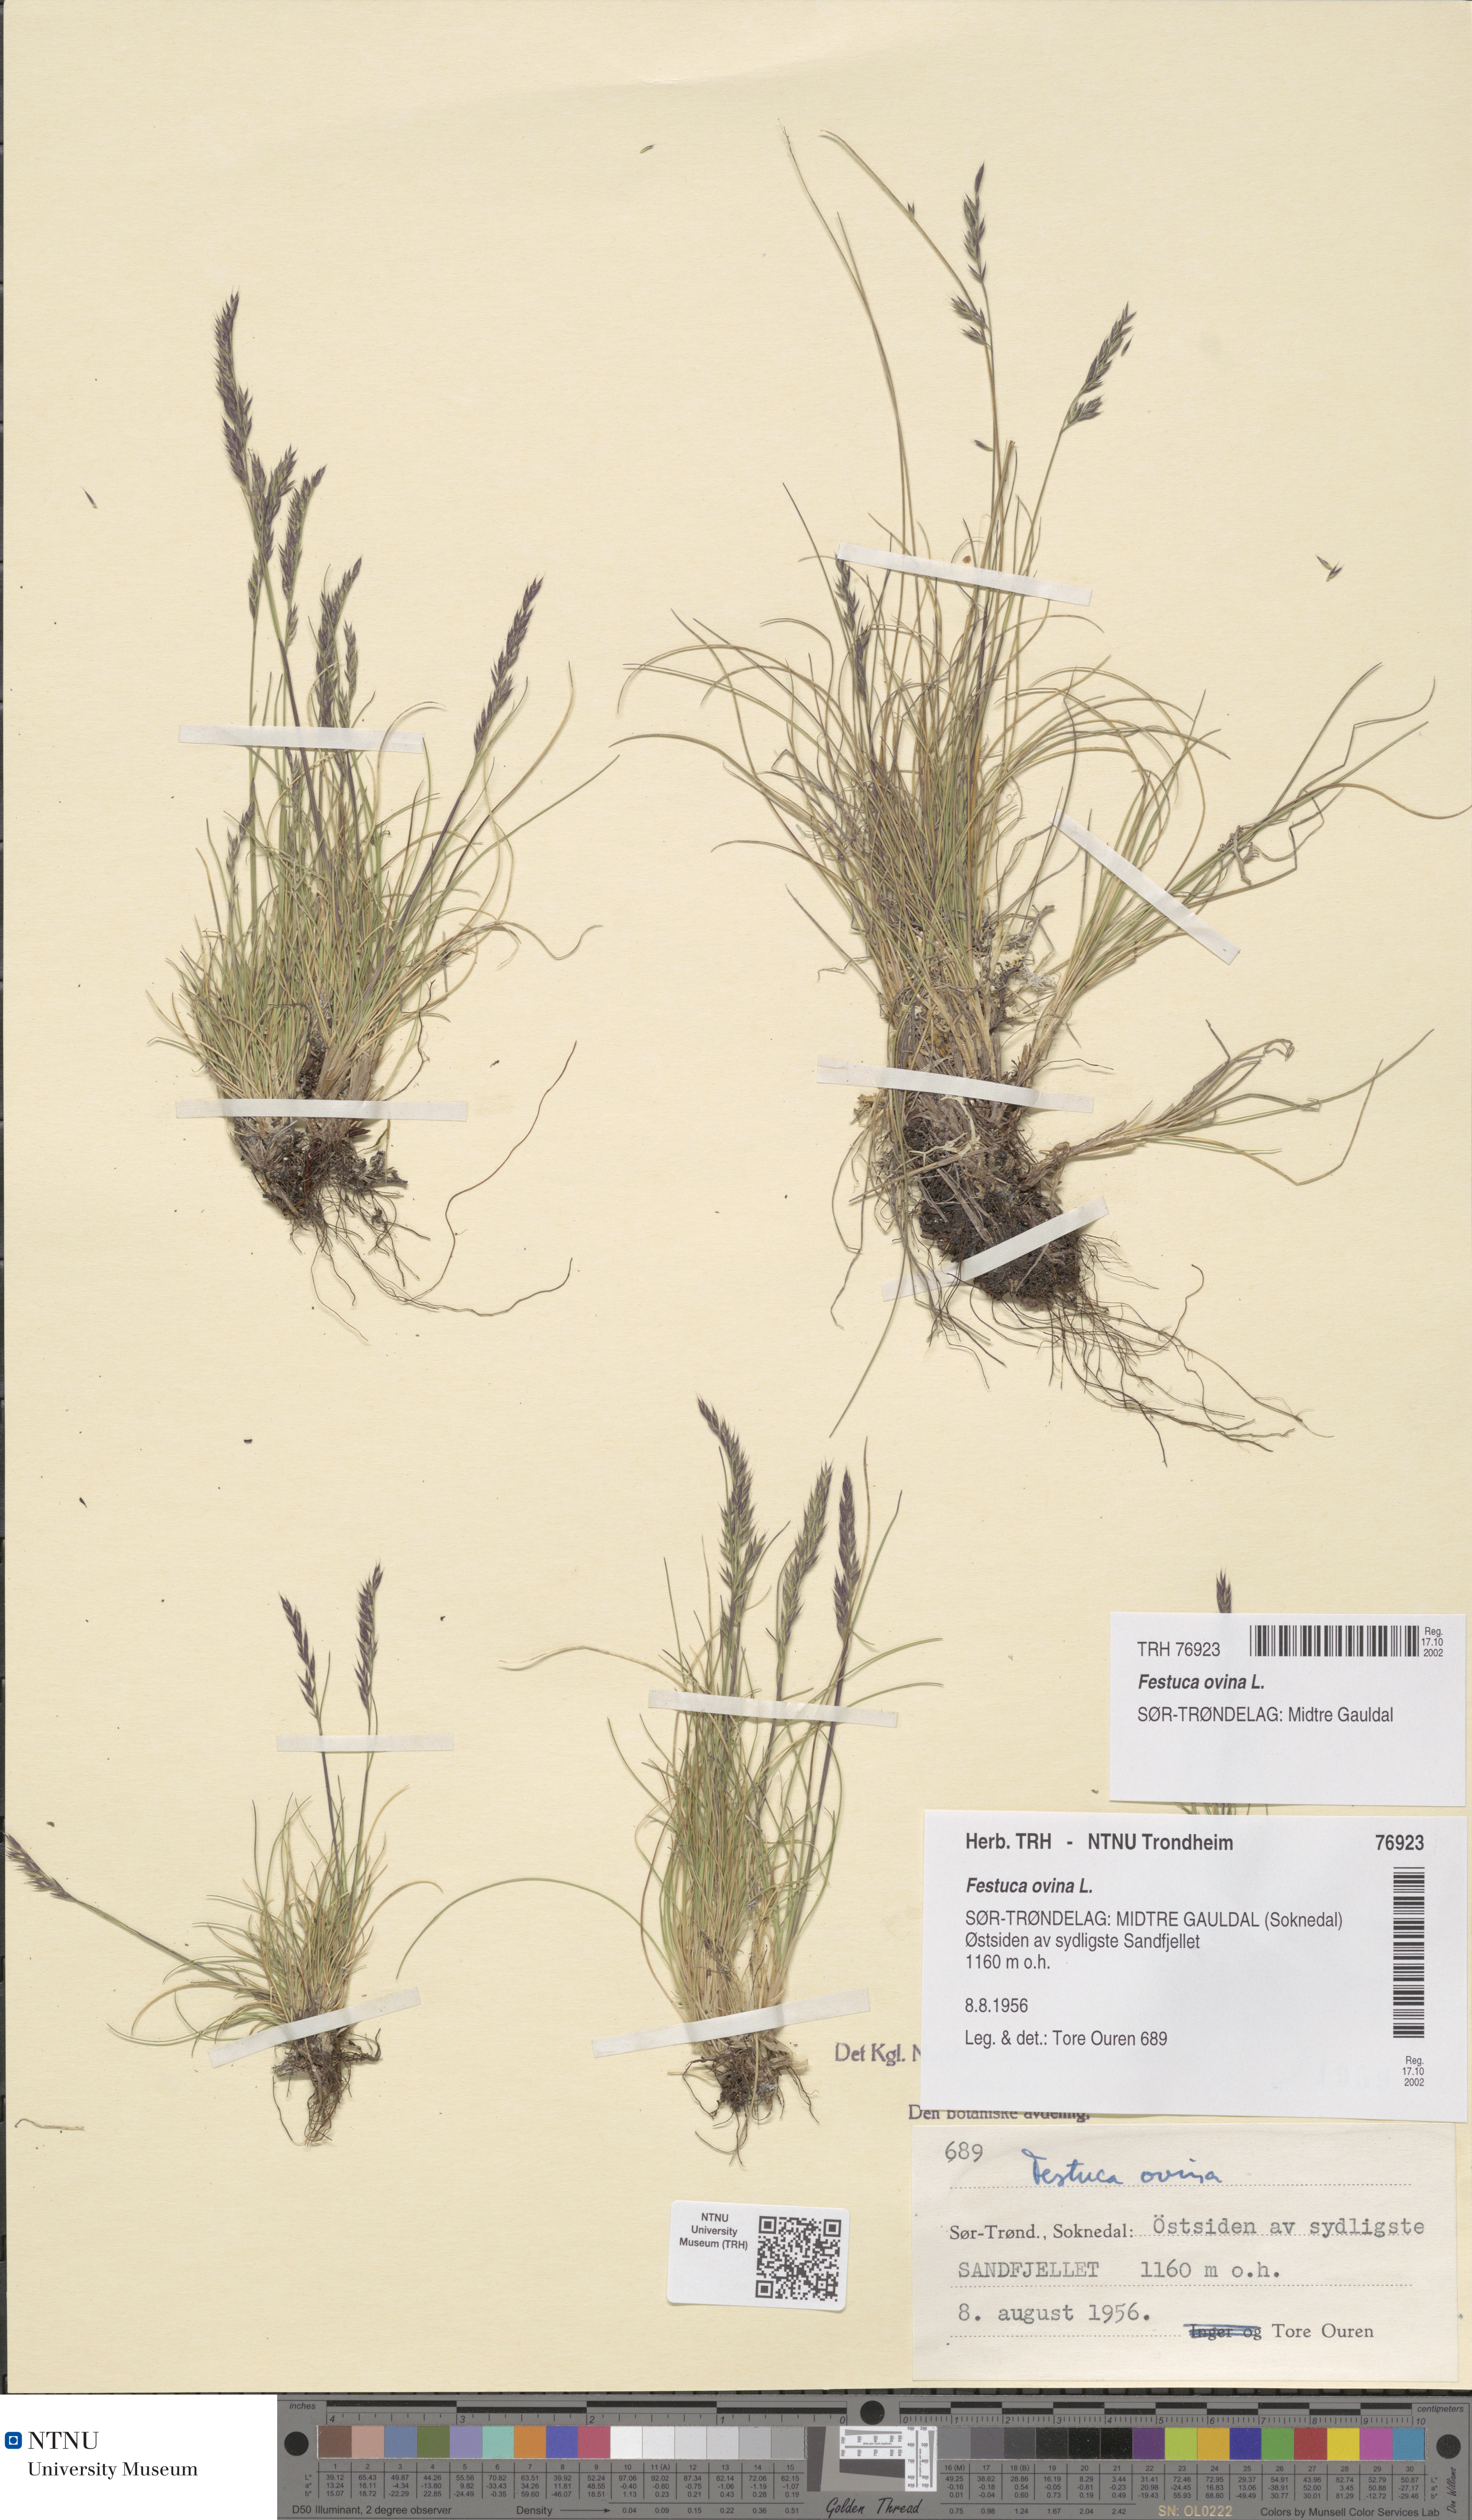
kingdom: Plantae
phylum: Tracheophyta
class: Liliopsida
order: Poales
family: Poaceae
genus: Festuca
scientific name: Festuca ovina
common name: Sheep fescue
